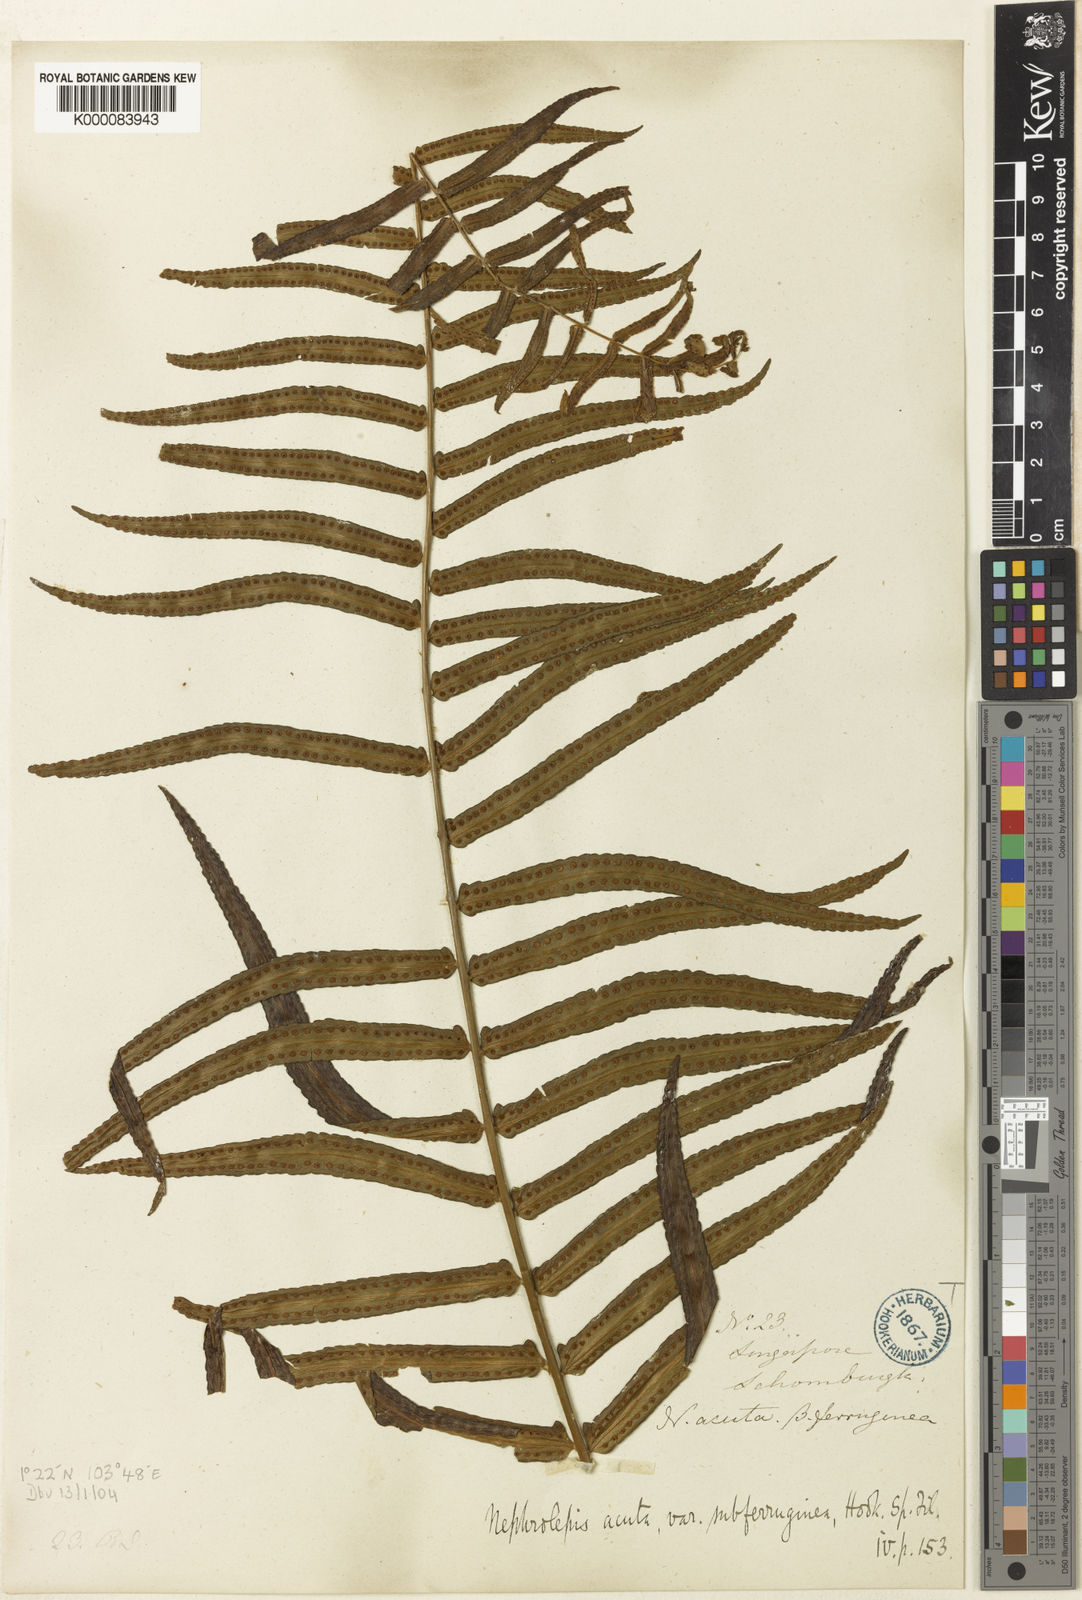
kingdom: Plantae
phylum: Tracheophyta
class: Polypodiopsida
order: Polypodiales
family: Nephrolepidaceae
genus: Nephrolepis
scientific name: Nephrolepis biserrata
